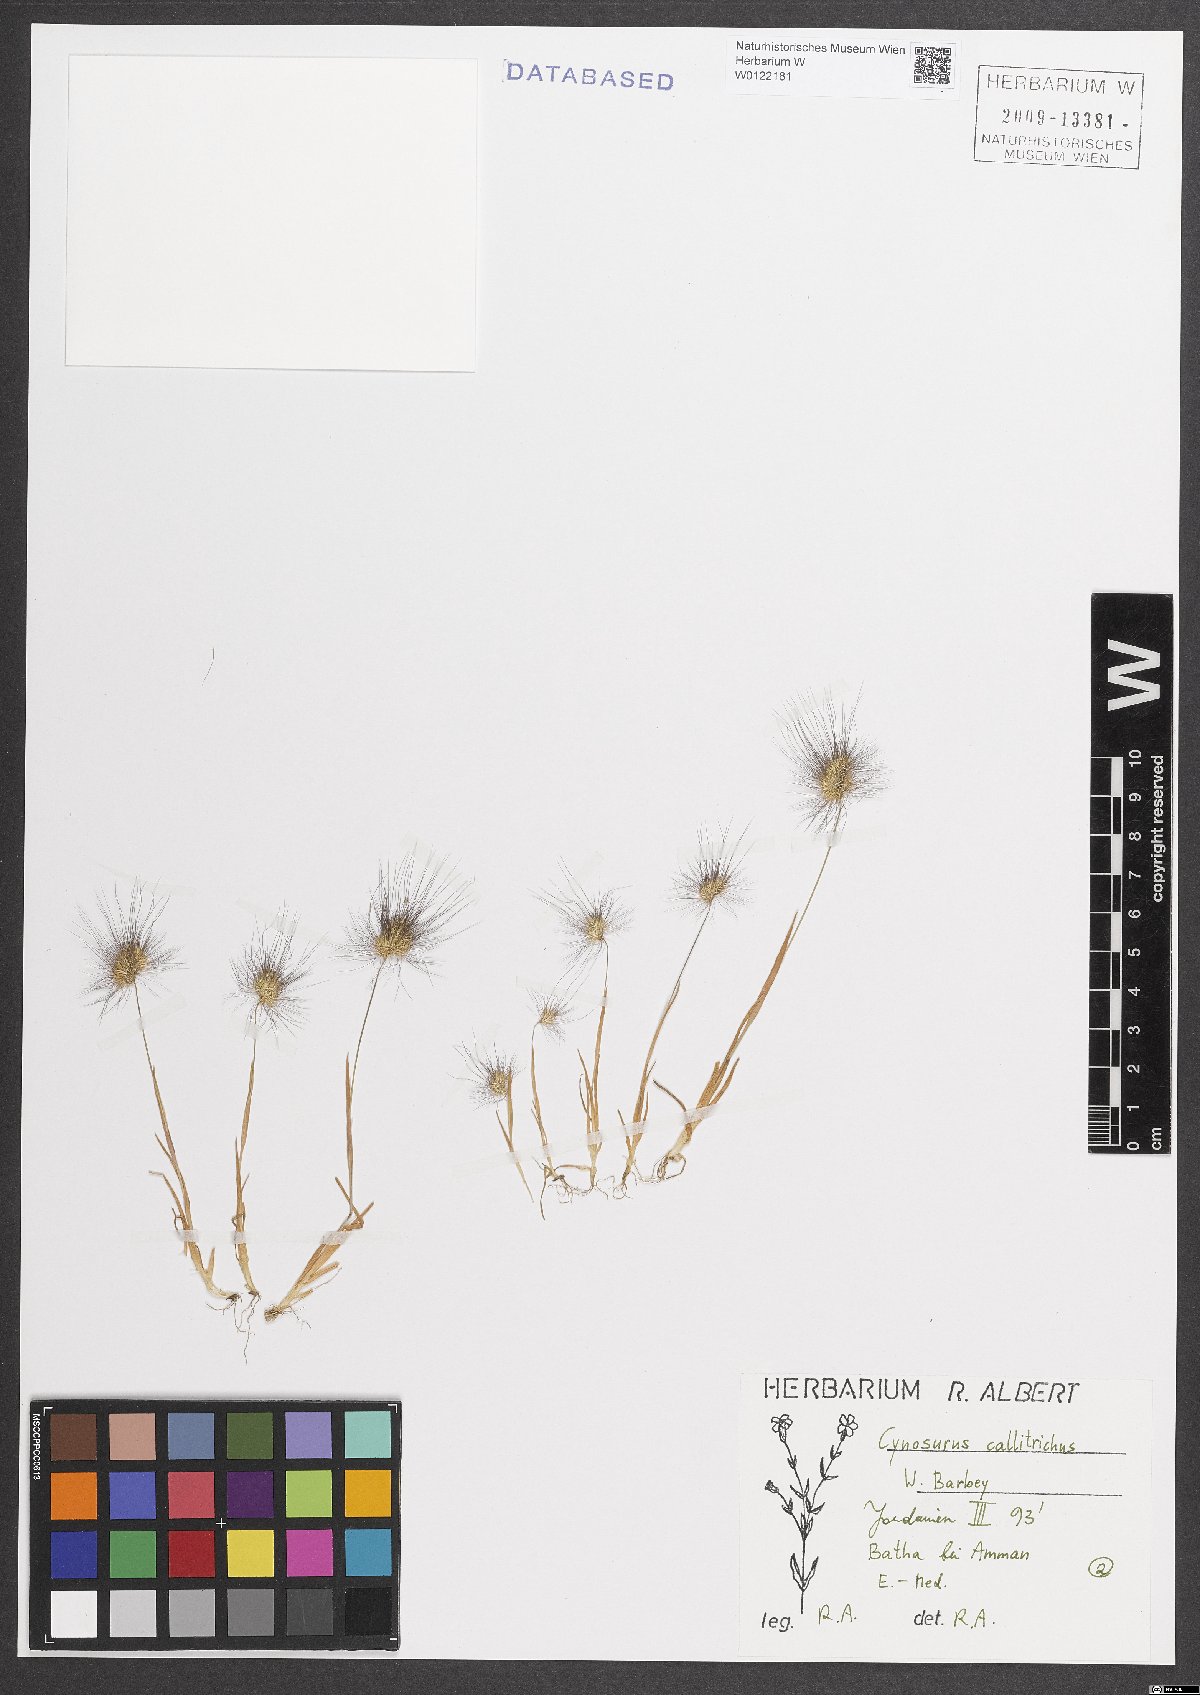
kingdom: Plantae
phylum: Tracheophyta
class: Liliopsida
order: Poales
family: Poaceae
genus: Cynosurus
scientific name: Cynosurus coloratus
